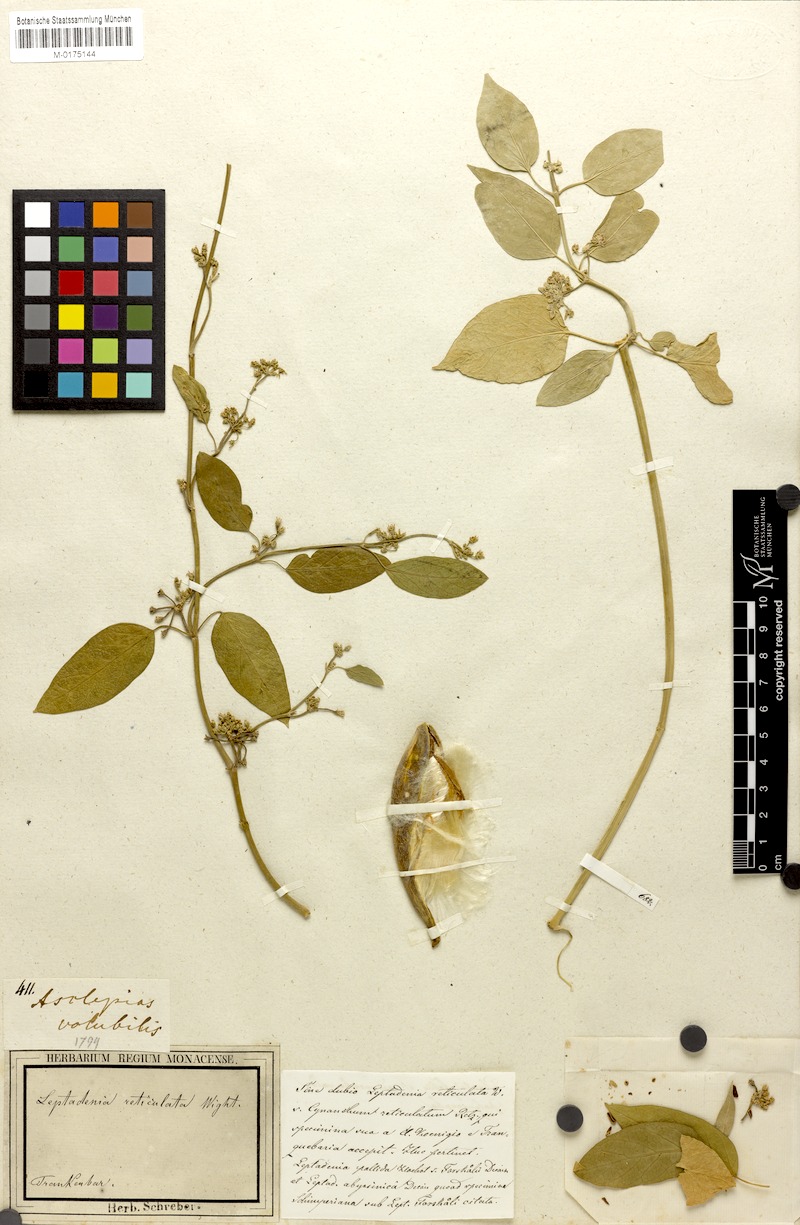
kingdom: Plantae
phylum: Tracheophyta
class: Magnoliopsida
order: Gentianales
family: Apocynaceae
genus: Leptadenia
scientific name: Leptadenia reticulata
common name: Leptadenia
